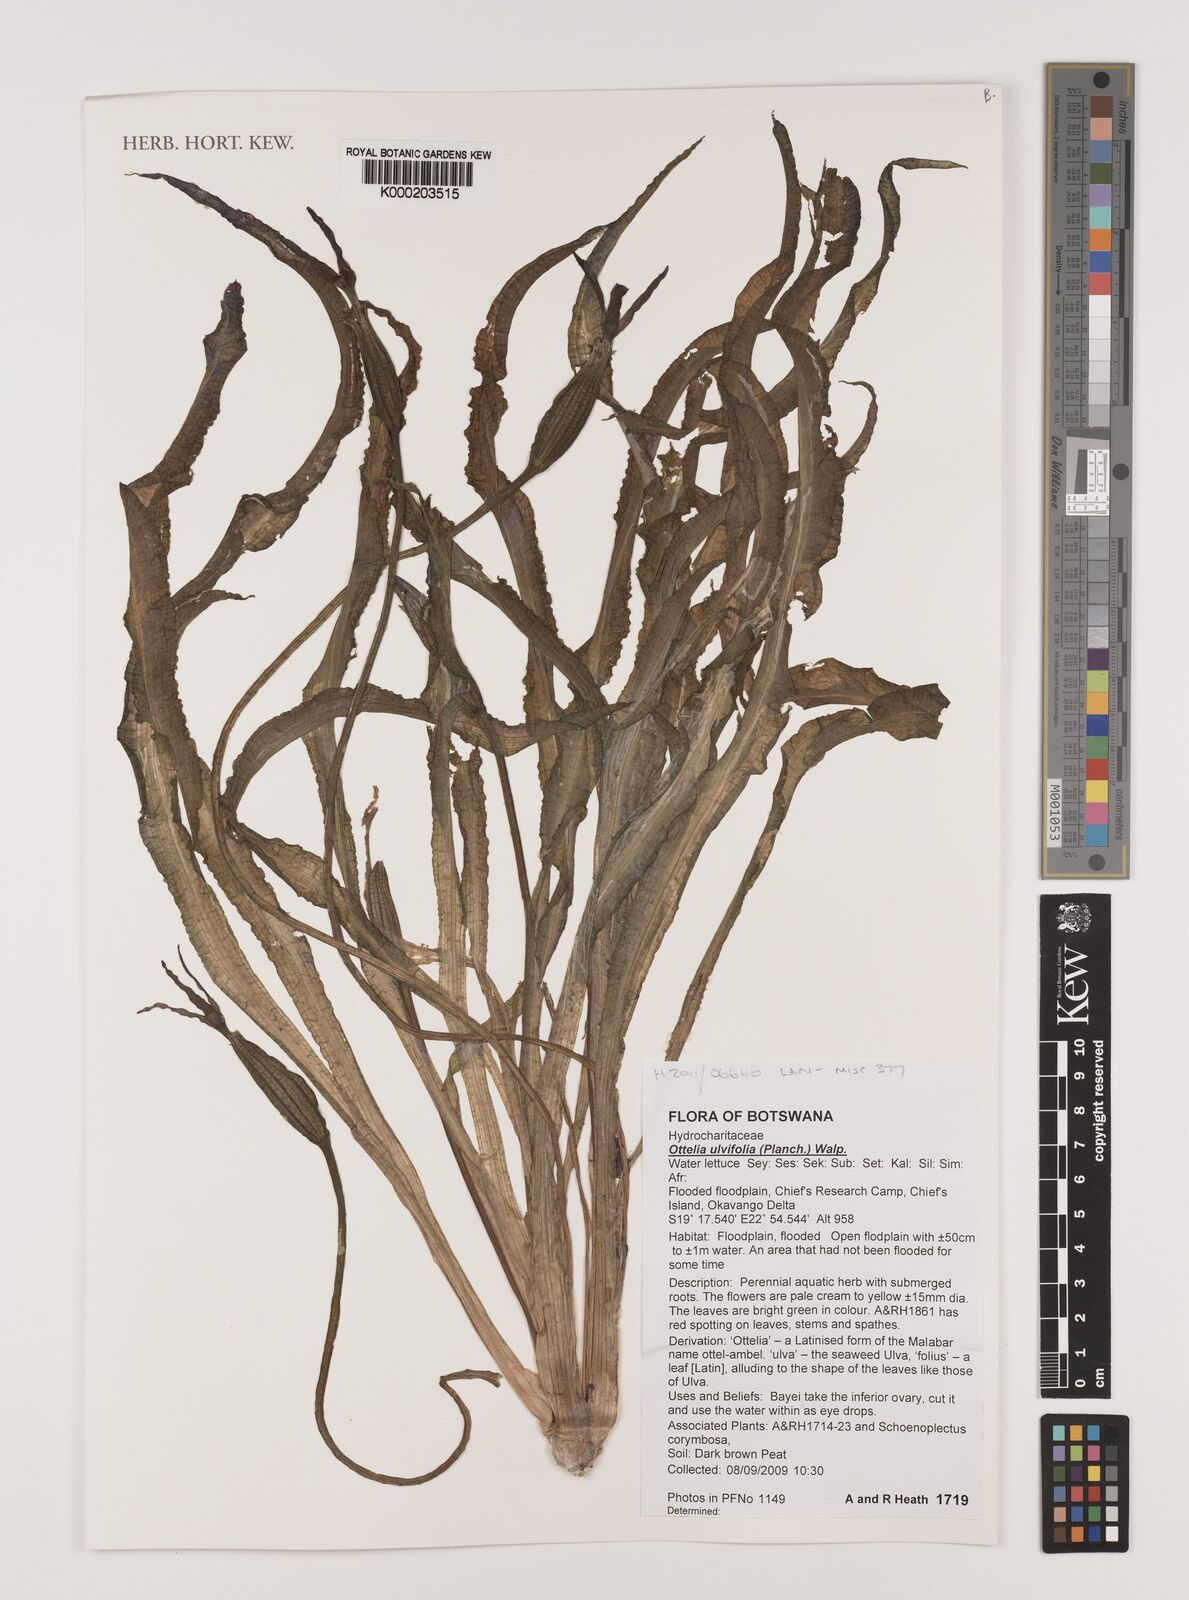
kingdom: Plantae
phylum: Tracheophyta
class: Liliopsida
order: Alismatales
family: Hydrocharitaceae
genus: Ottelia
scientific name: Ottelia ulvifolia
